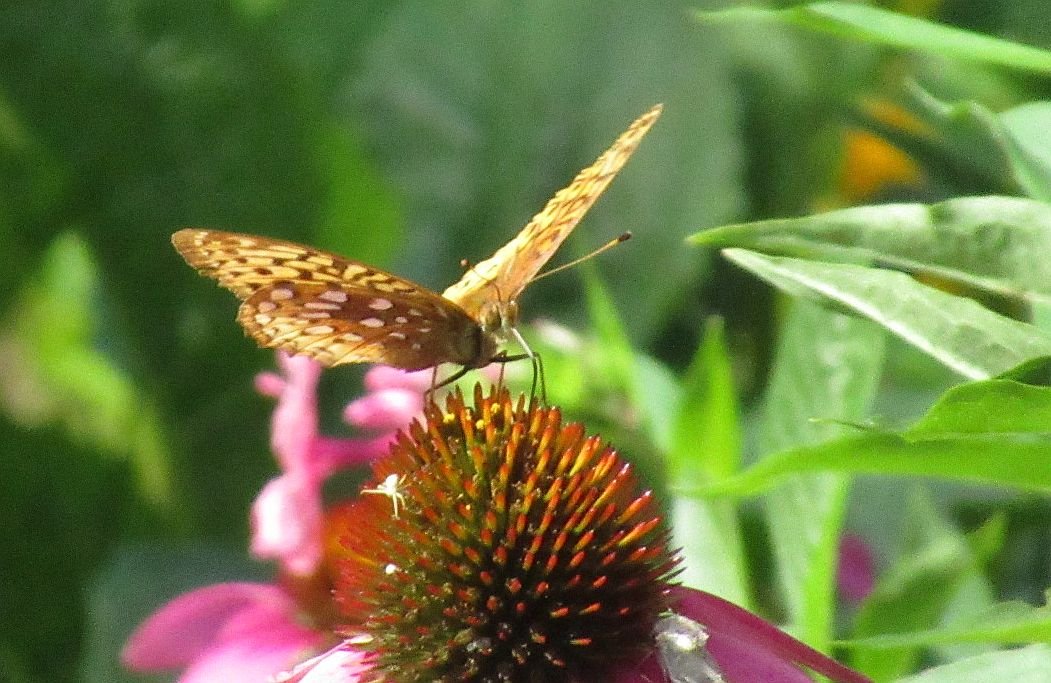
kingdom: Animalia
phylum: Arthropoda
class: Insecta
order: Lepidoptera
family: Nymphalidae
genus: Speyeria
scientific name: Speyeria cybele
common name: Great Spangled Fritillary
